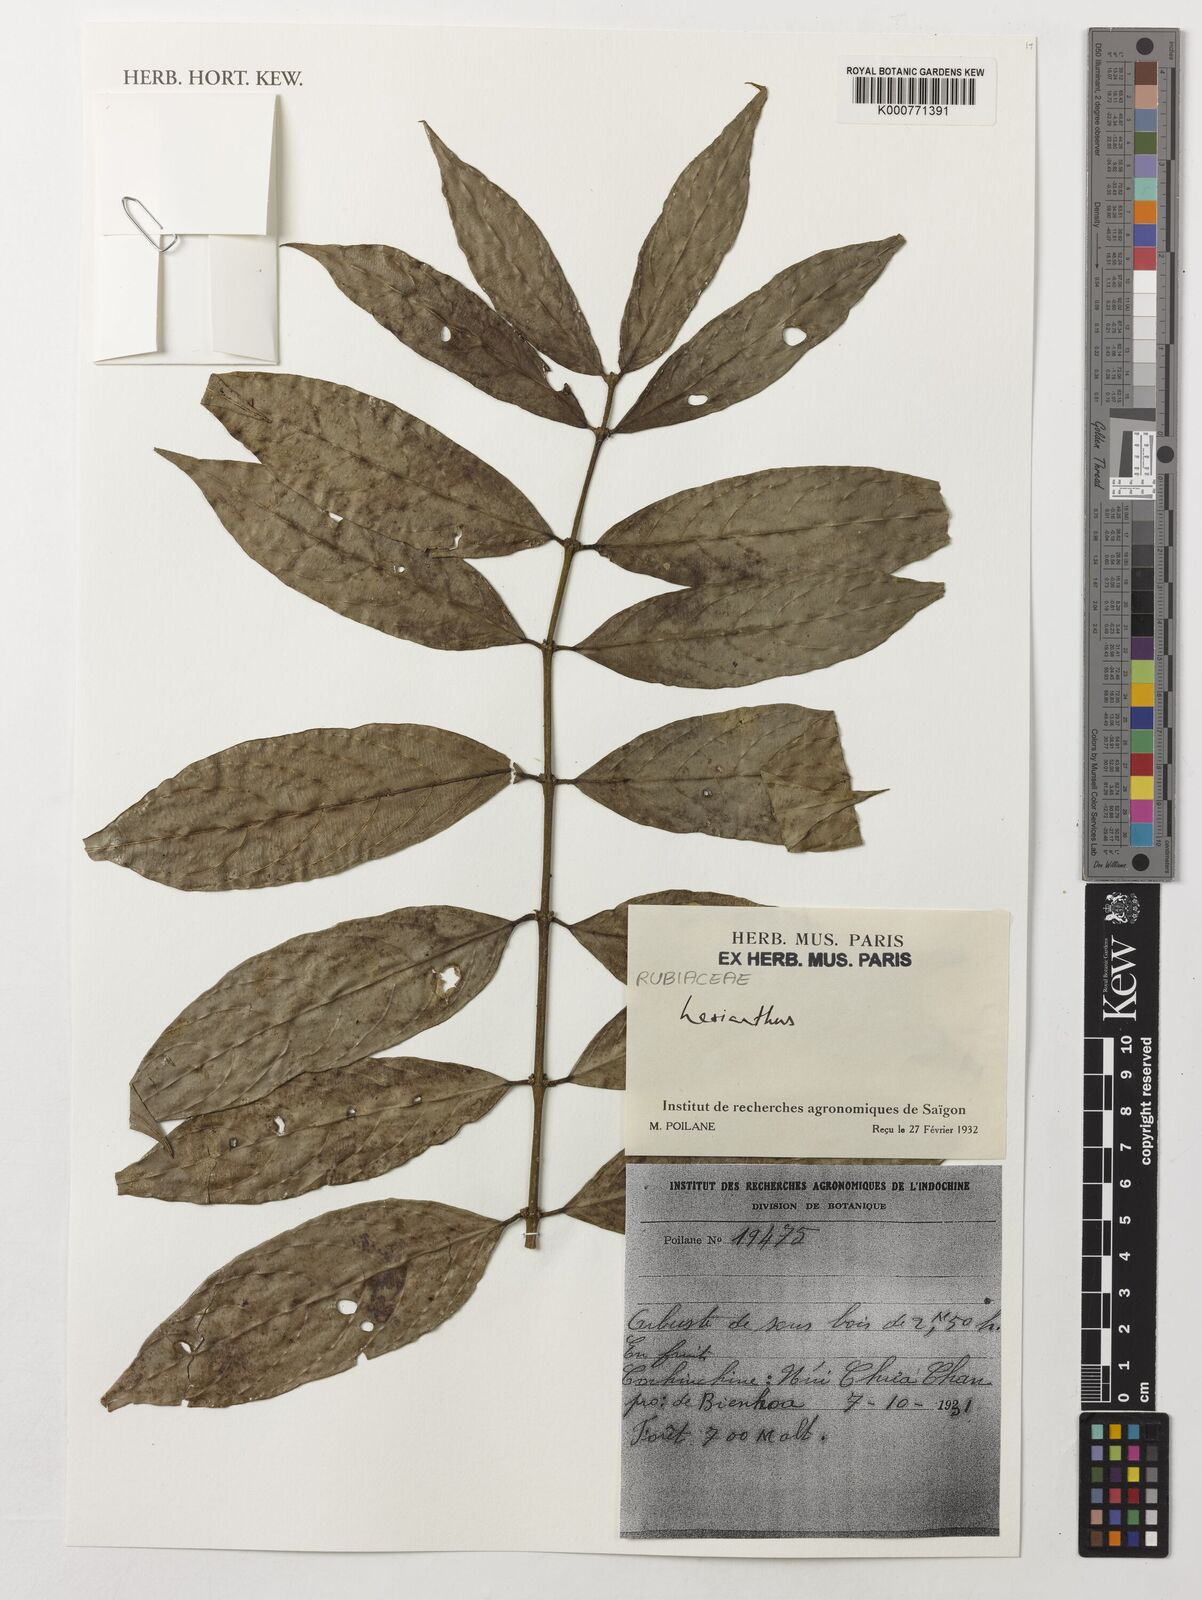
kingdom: Plantae
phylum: Tracheophyta
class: Magnoliopsida
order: Gentianales
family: Rubiaceae
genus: Lasianthus
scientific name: Lasianthus
